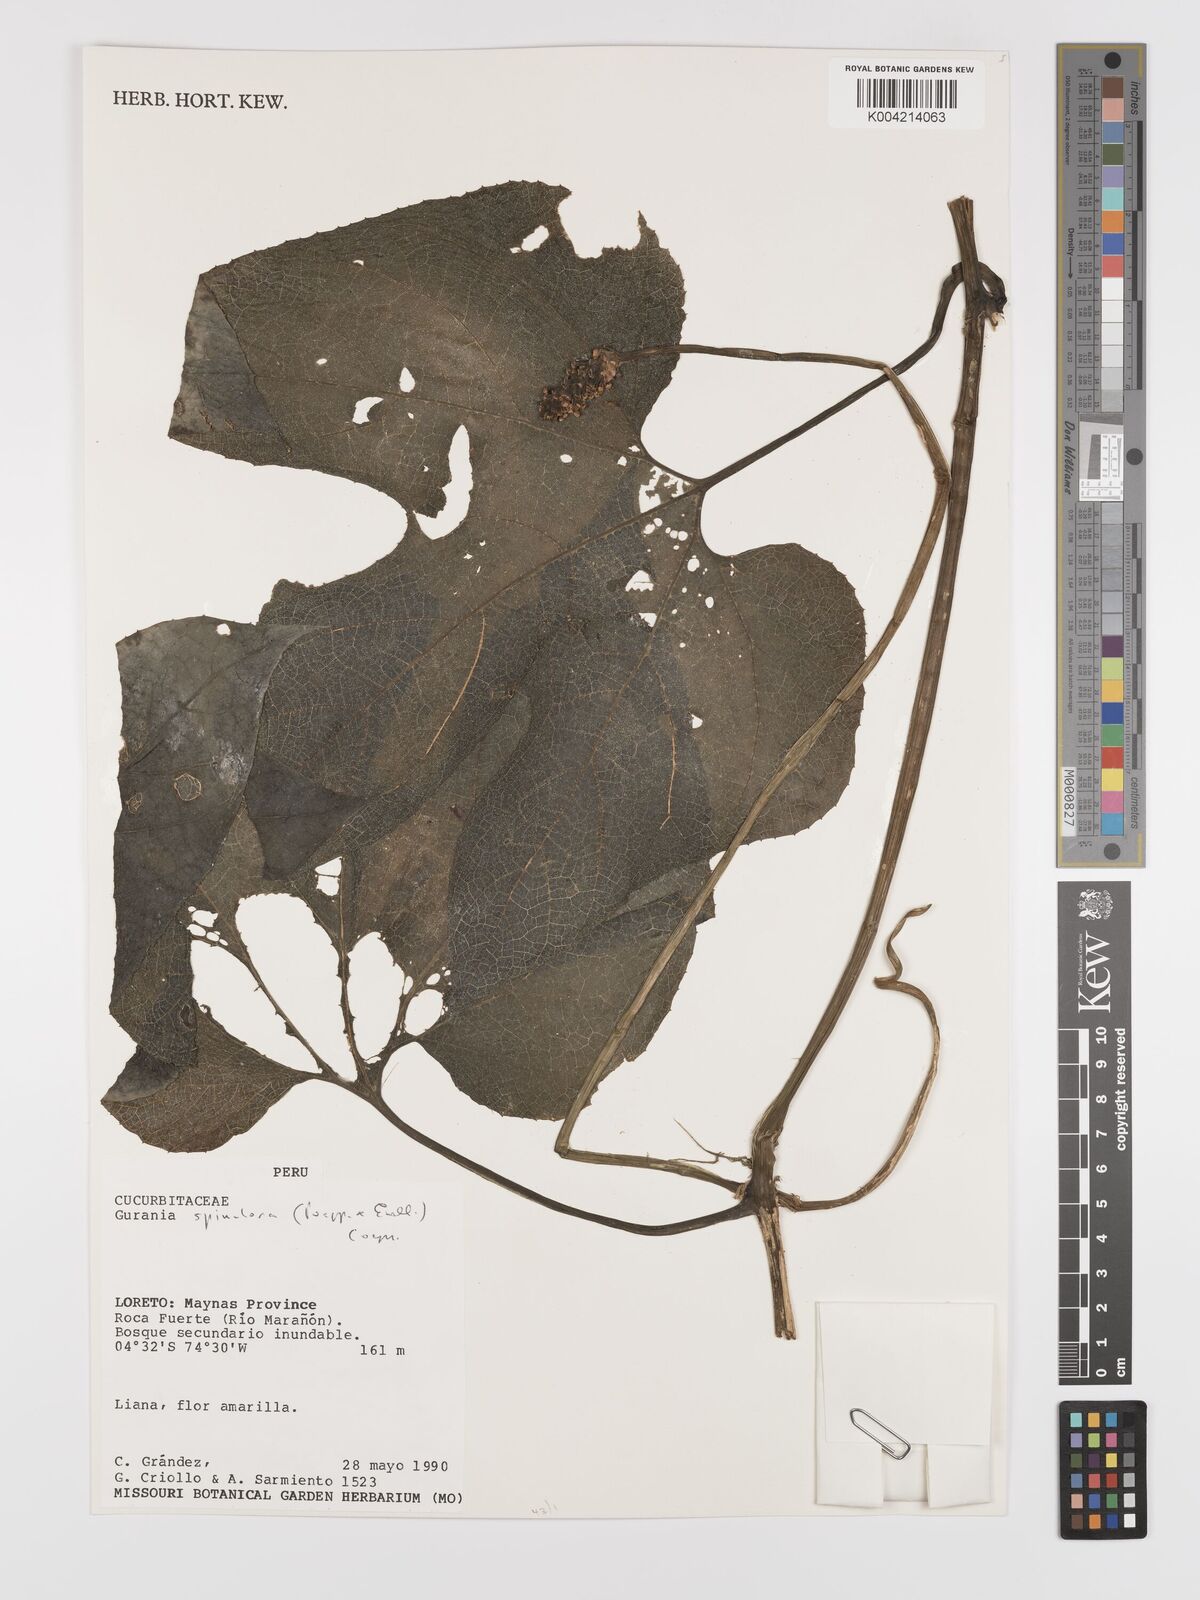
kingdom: Plantae
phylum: Tracheophyta
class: Magnoliopsida
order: Cucurbitales
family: Cucurbitaceae
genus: Gurania
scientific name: Gurania lobata
